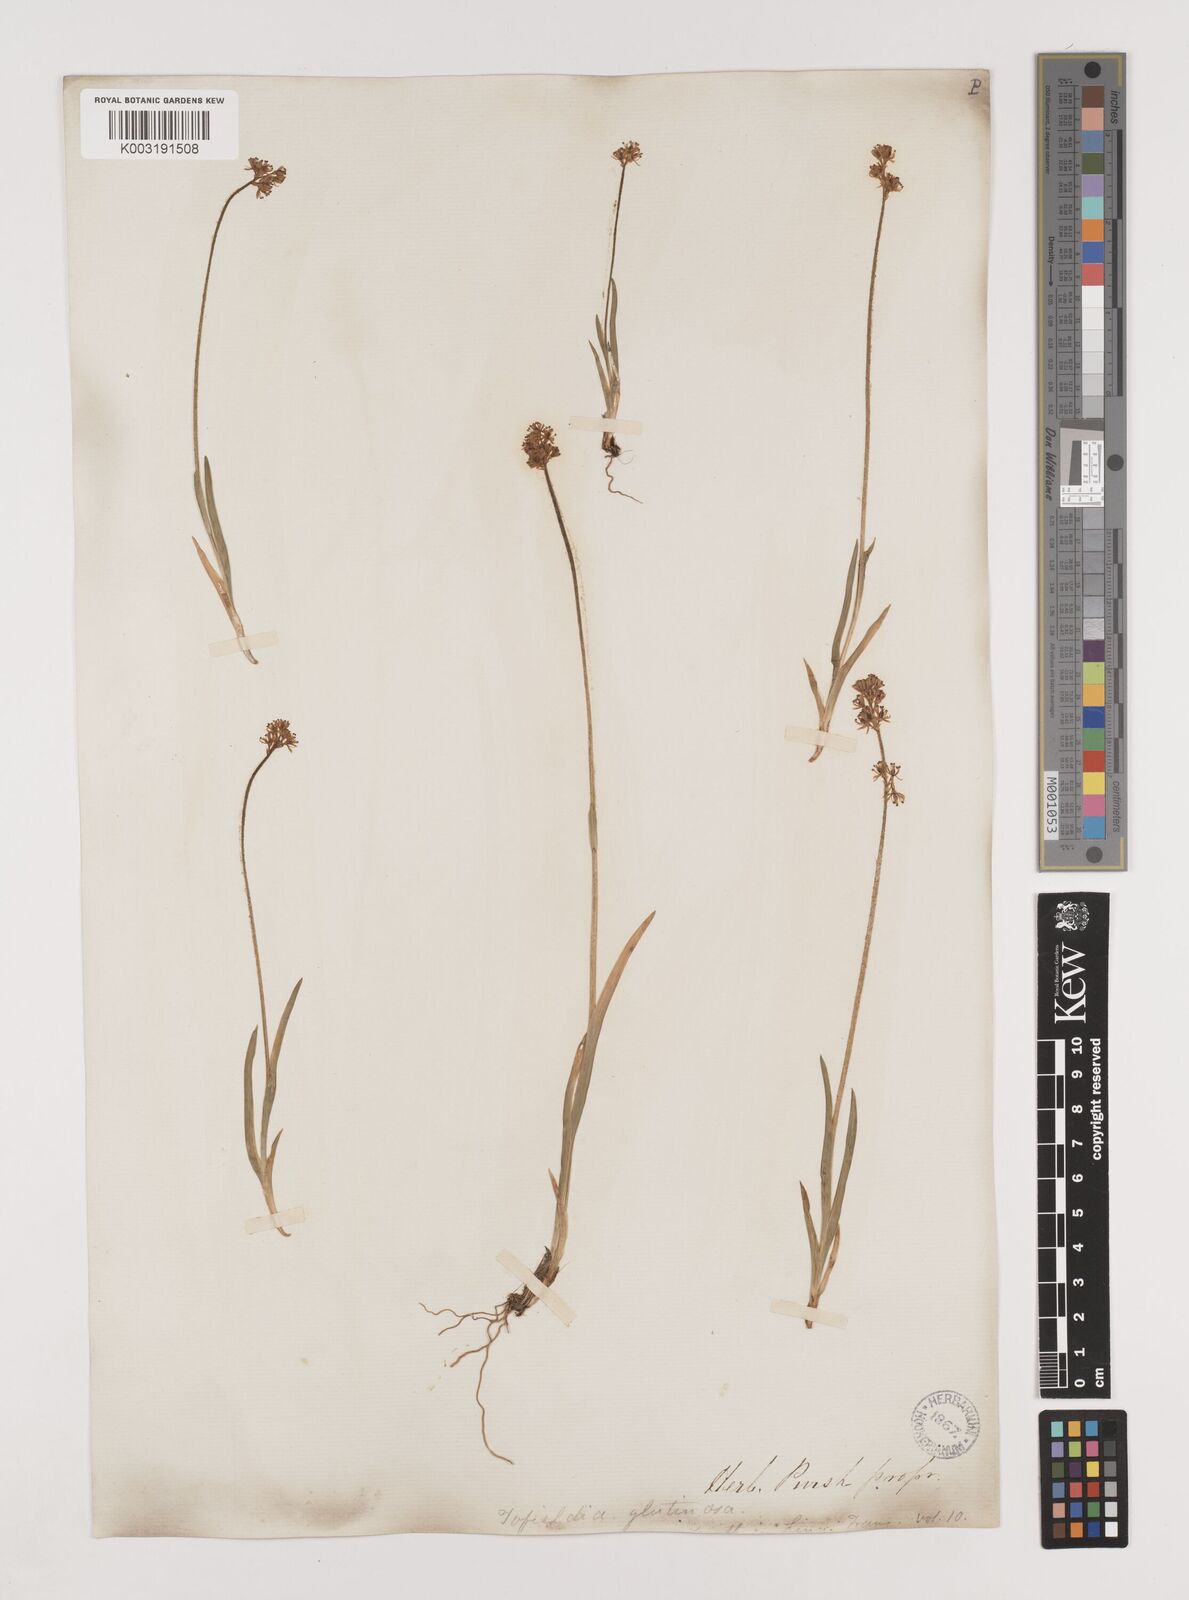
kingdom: Plantae
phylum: Tracheophyta
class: Liliopsida
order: Alismatales
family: Tofieldiaceae
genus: Triantha
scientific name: Triantha glutinosa
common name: Glutinous tofieldia
